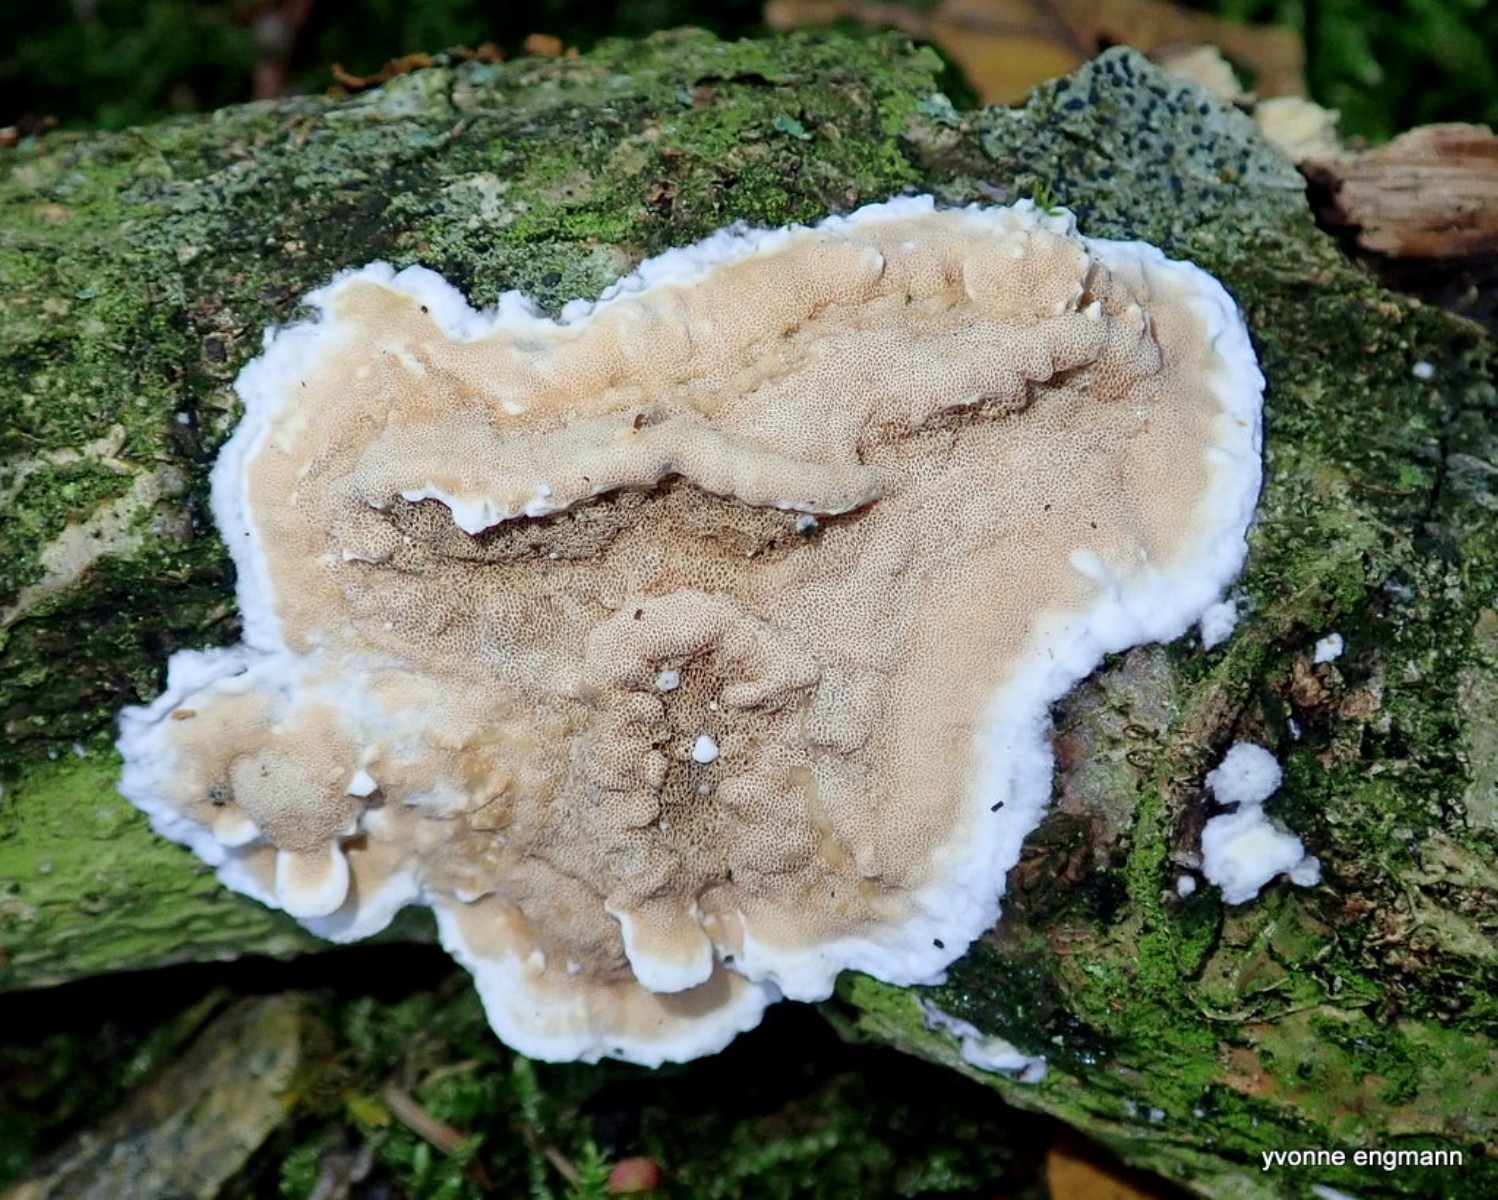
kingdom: Fungi
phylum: Basidiomycota
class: Agaricomycetes
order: Polyporales
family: Irpicaceae
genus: Byssomerulius
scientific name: Byssomerulius corium
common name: læder-åresvamp
